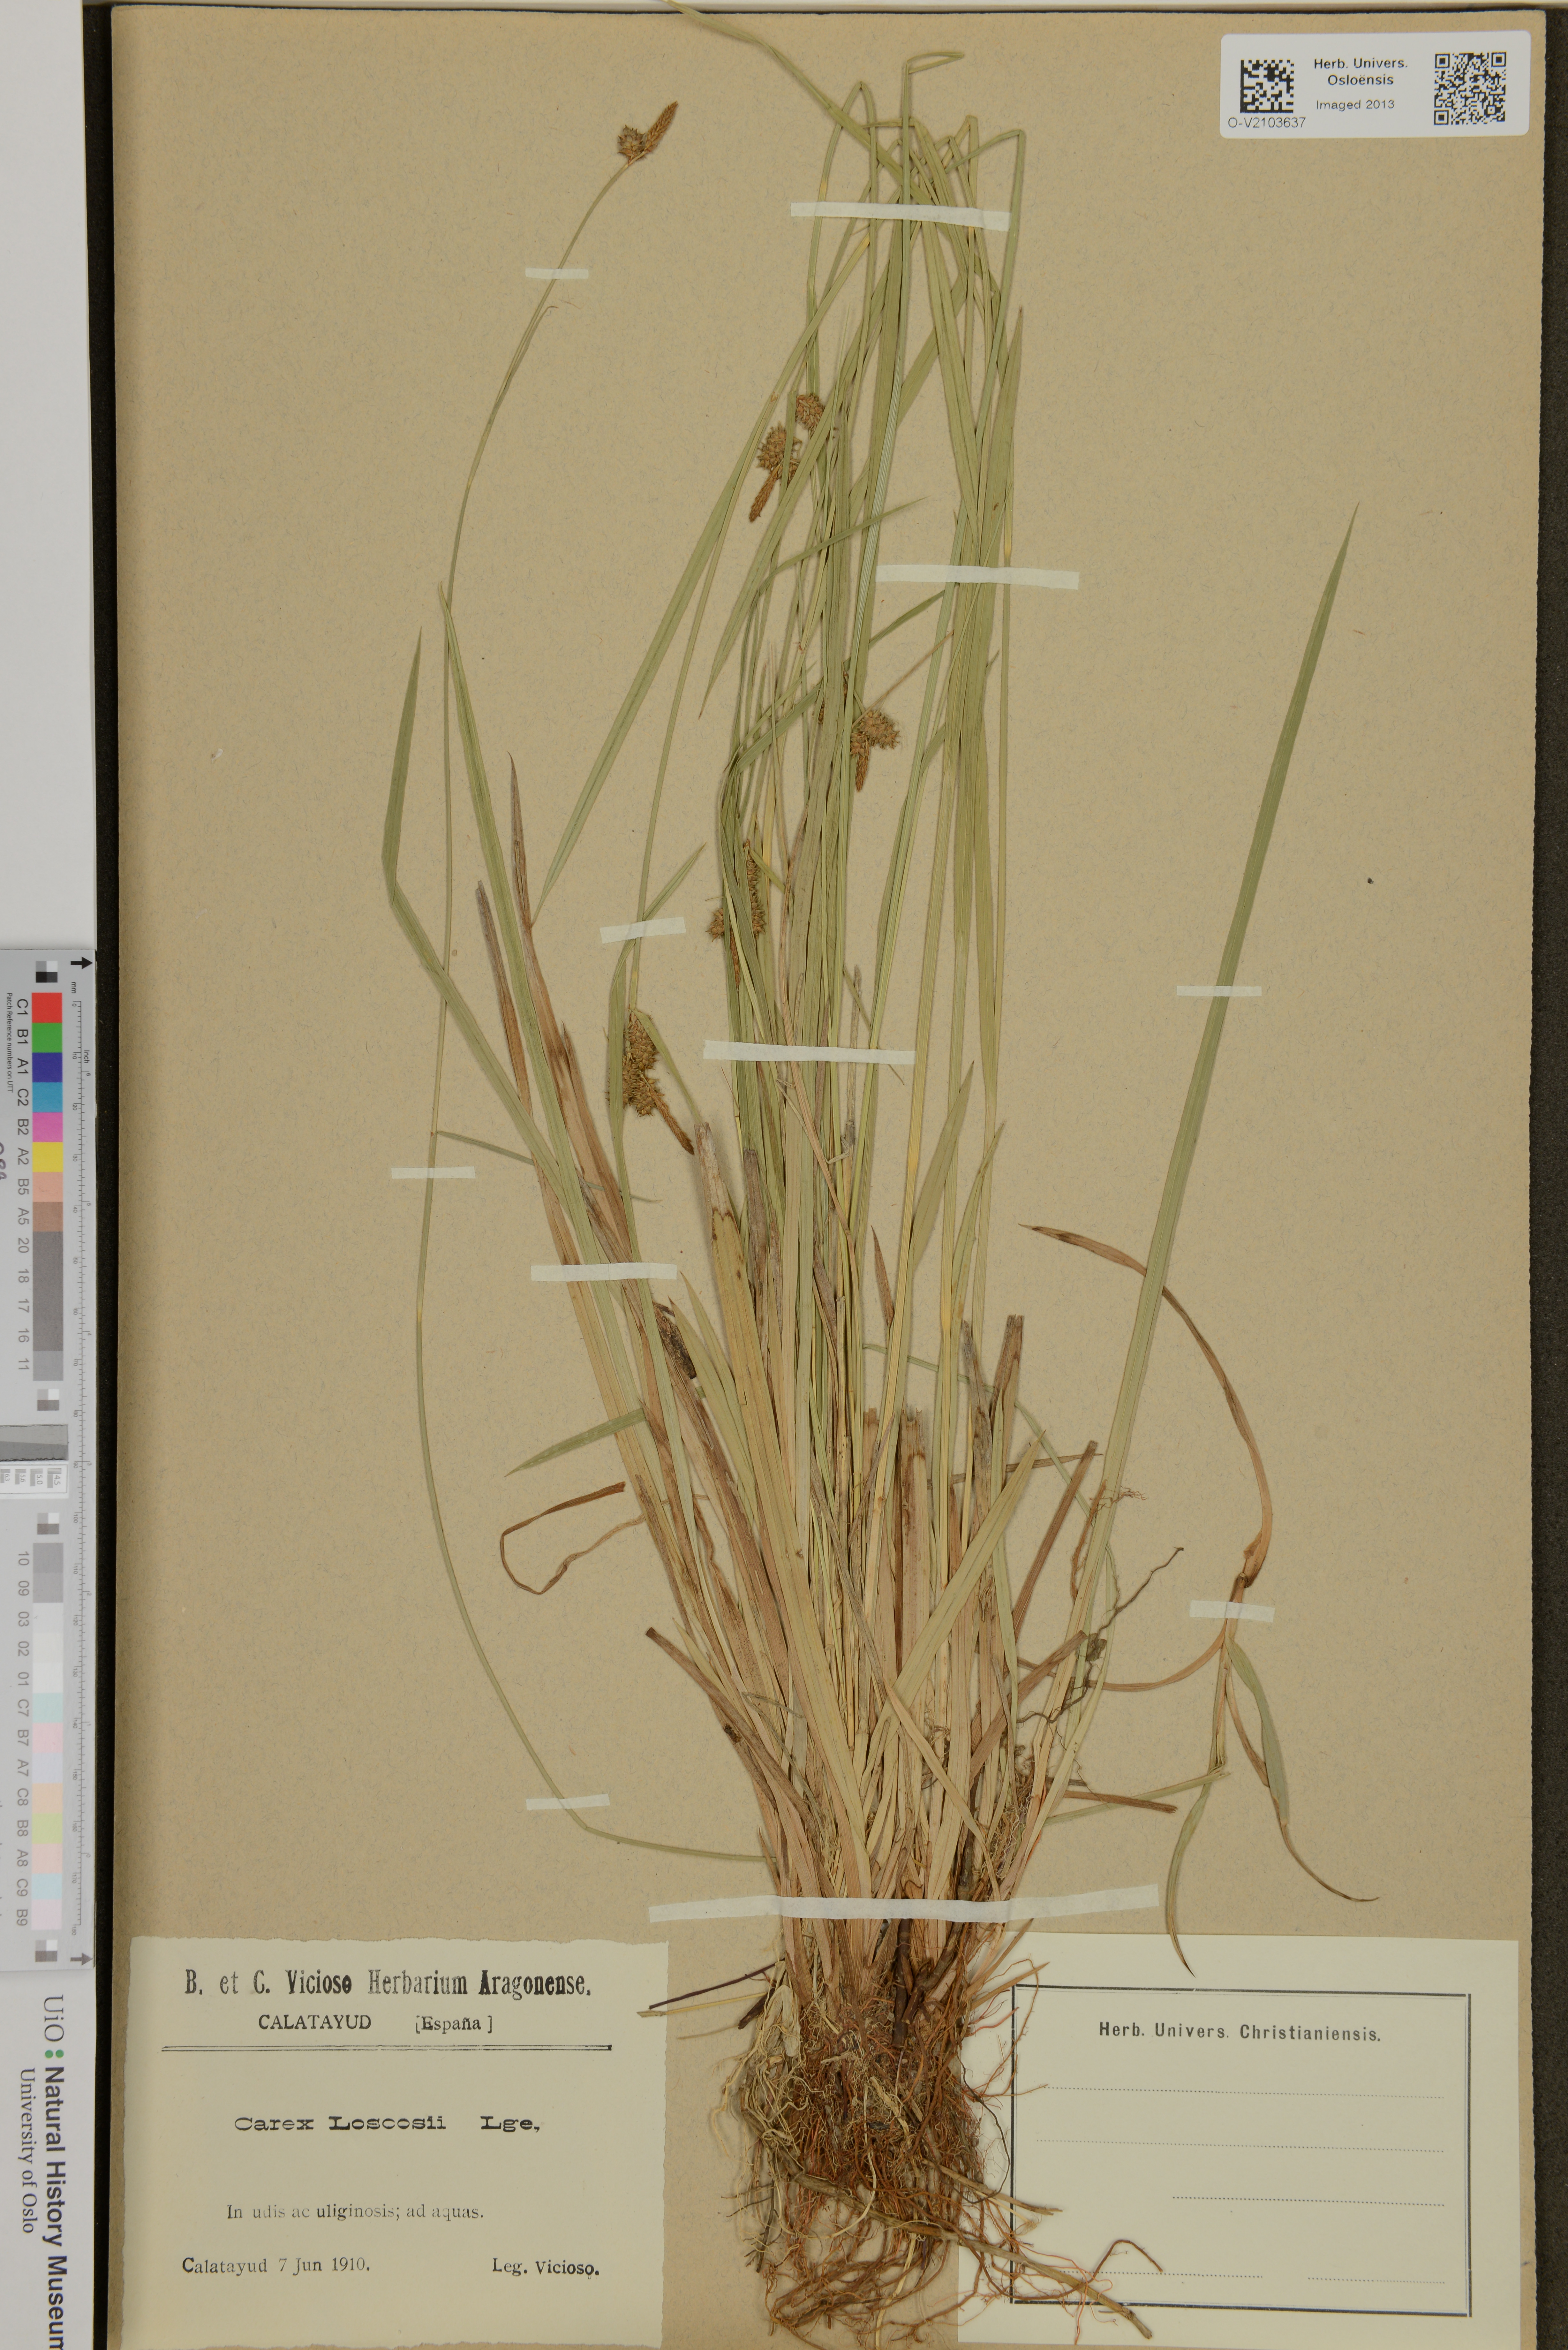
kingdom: Plantae
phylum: Tracheophyta
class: Liliopsida
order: Poales
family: Cyperaceae
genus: Carex
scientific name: Carex mairei
